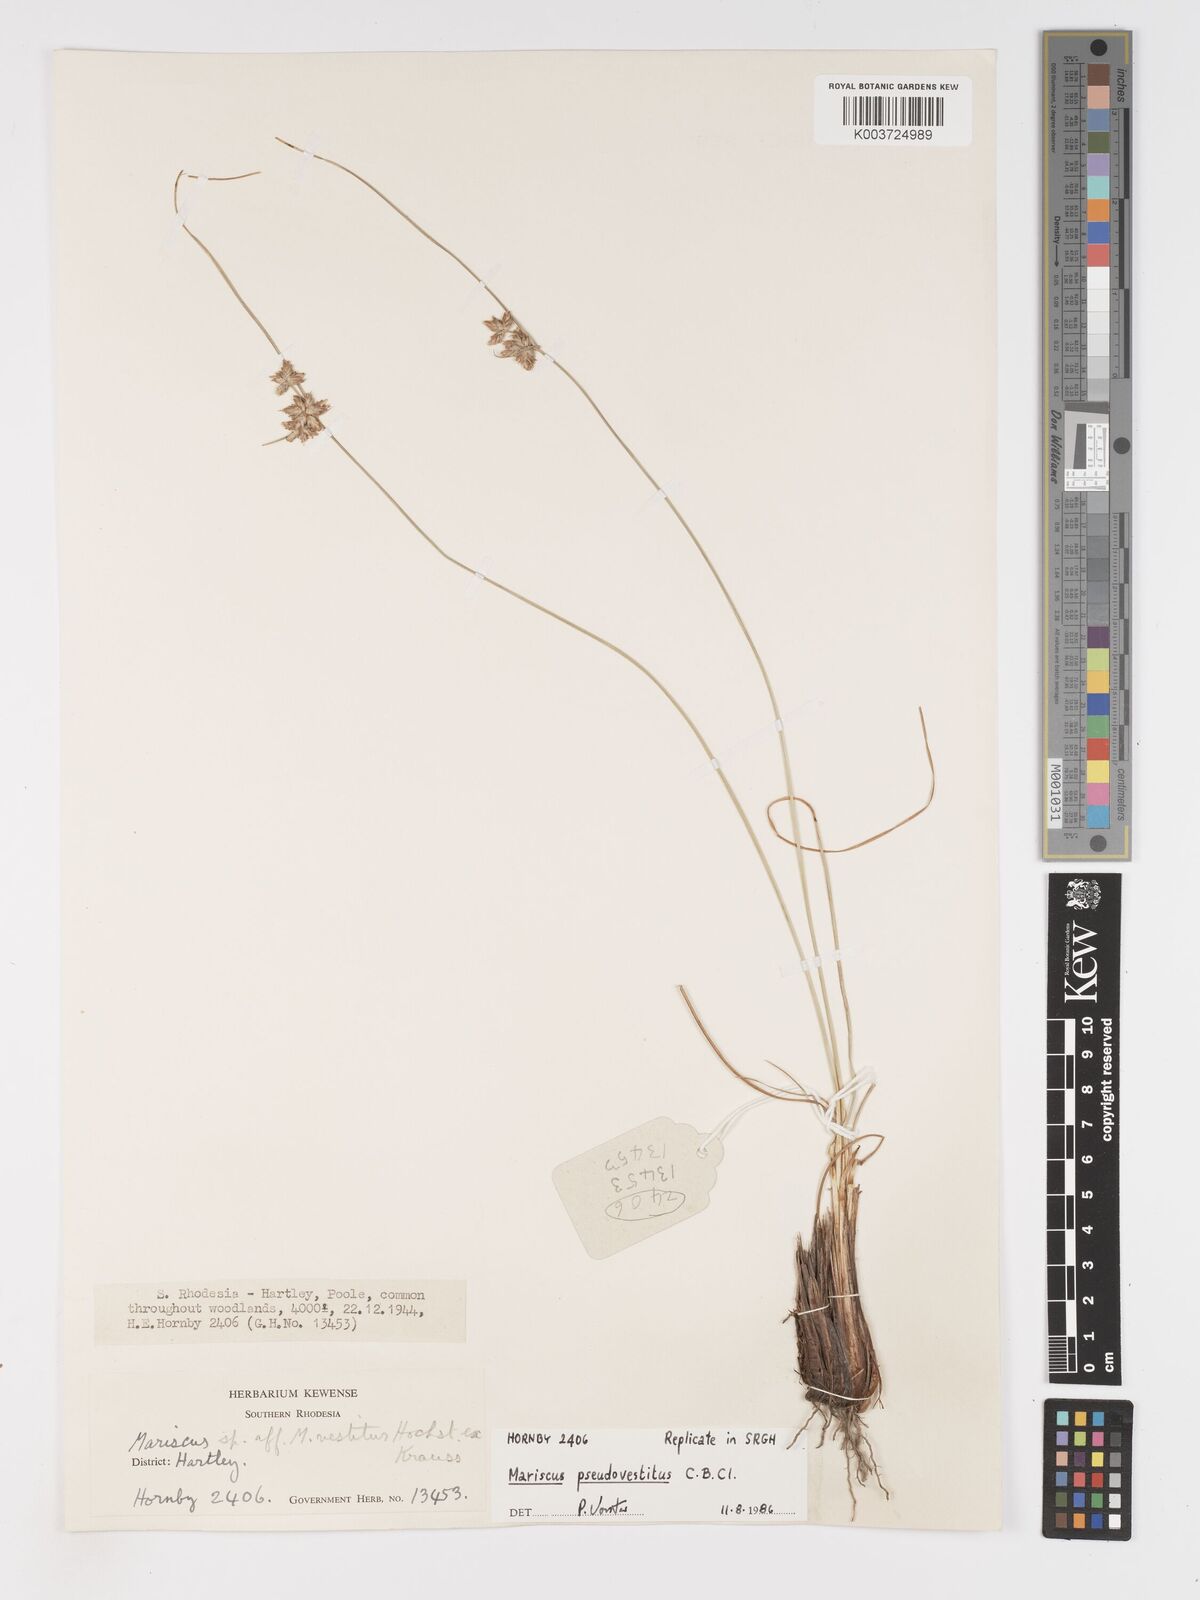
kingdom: Plantae
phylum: Tracheophyta
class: Liliopsida
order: Poales
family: Cyperaceae
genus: Cyperus
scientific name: Cyperus pseudovestitus
